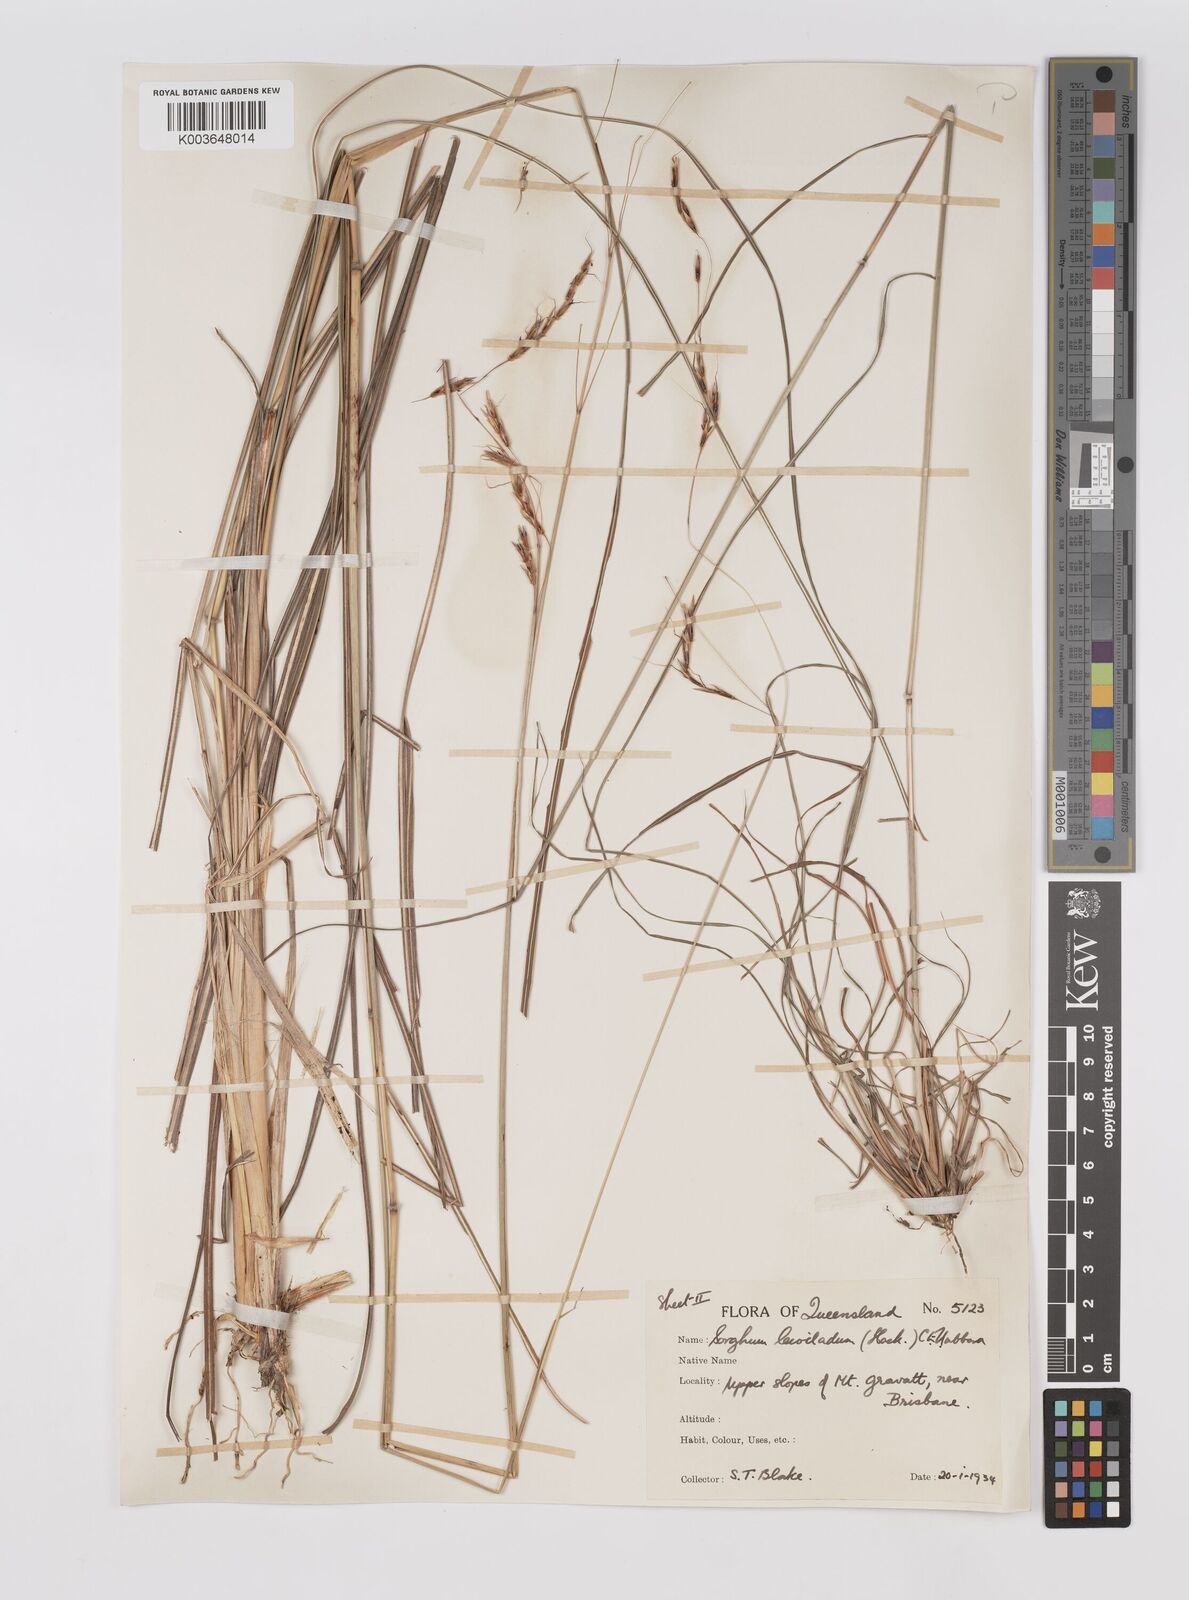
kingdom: Plantae
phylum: Tracheophyta
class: Liliopsida
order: Poales
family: Poaceae
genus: Sarga
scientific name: Sarga leioclada
